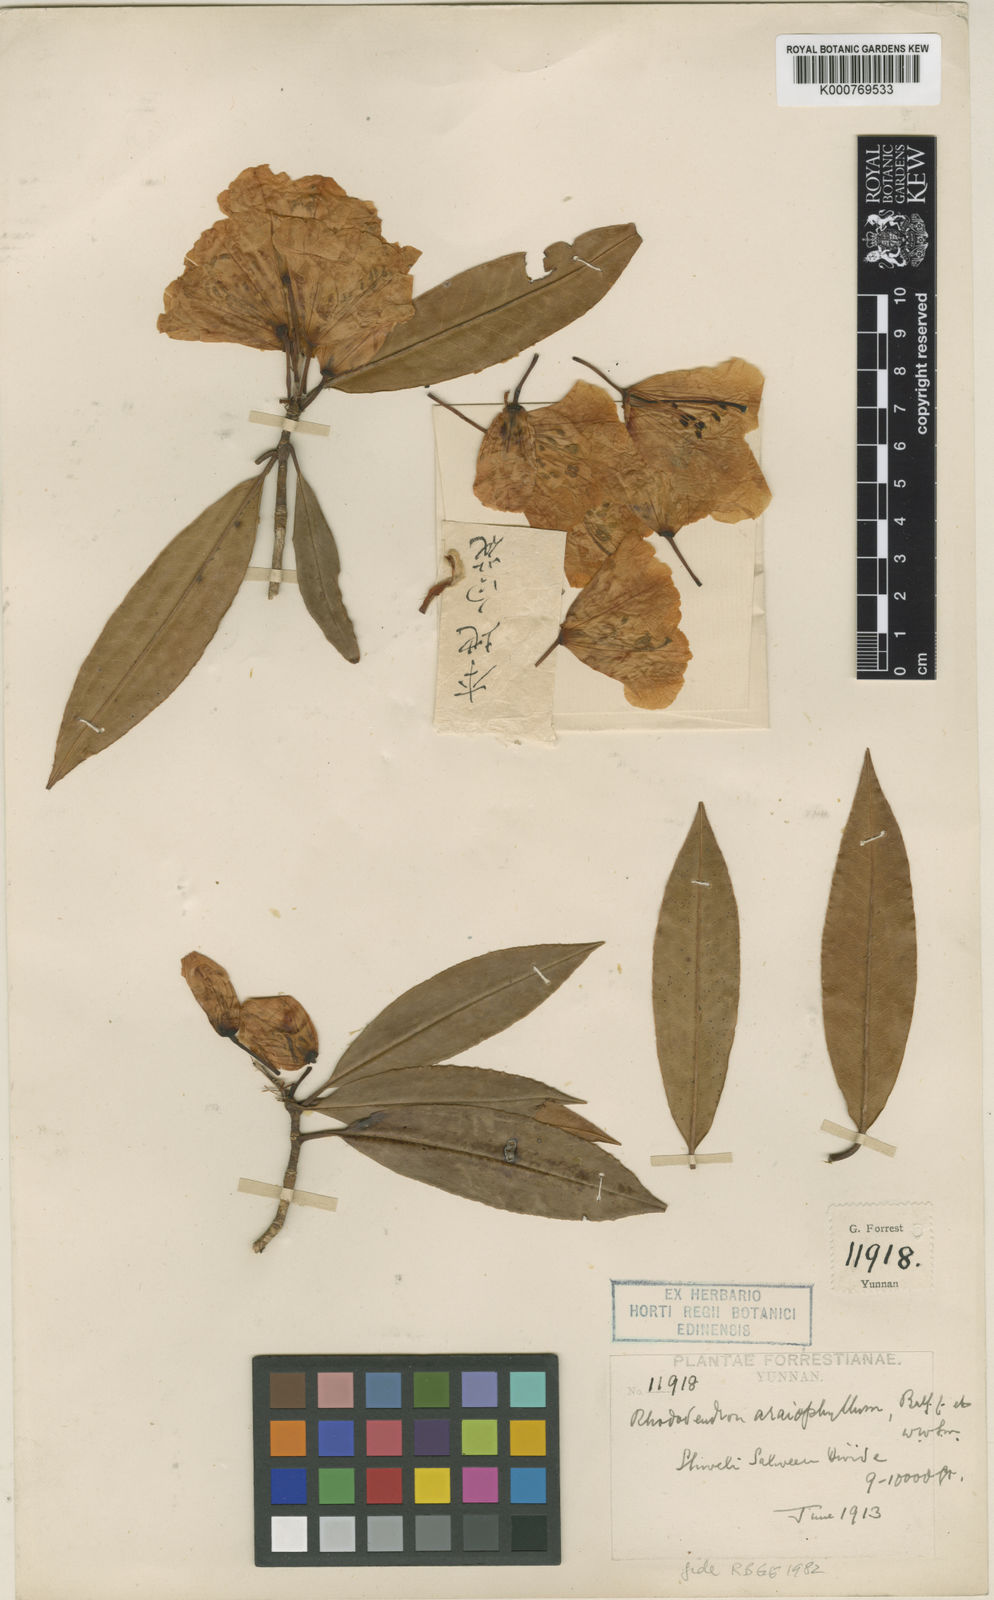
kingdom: Plantae
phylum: Tracheophyta
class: Magnoliopsida
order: Ericales
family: Ericaceae
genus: Rhododendron
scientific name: Rhododendron araiophyllum
